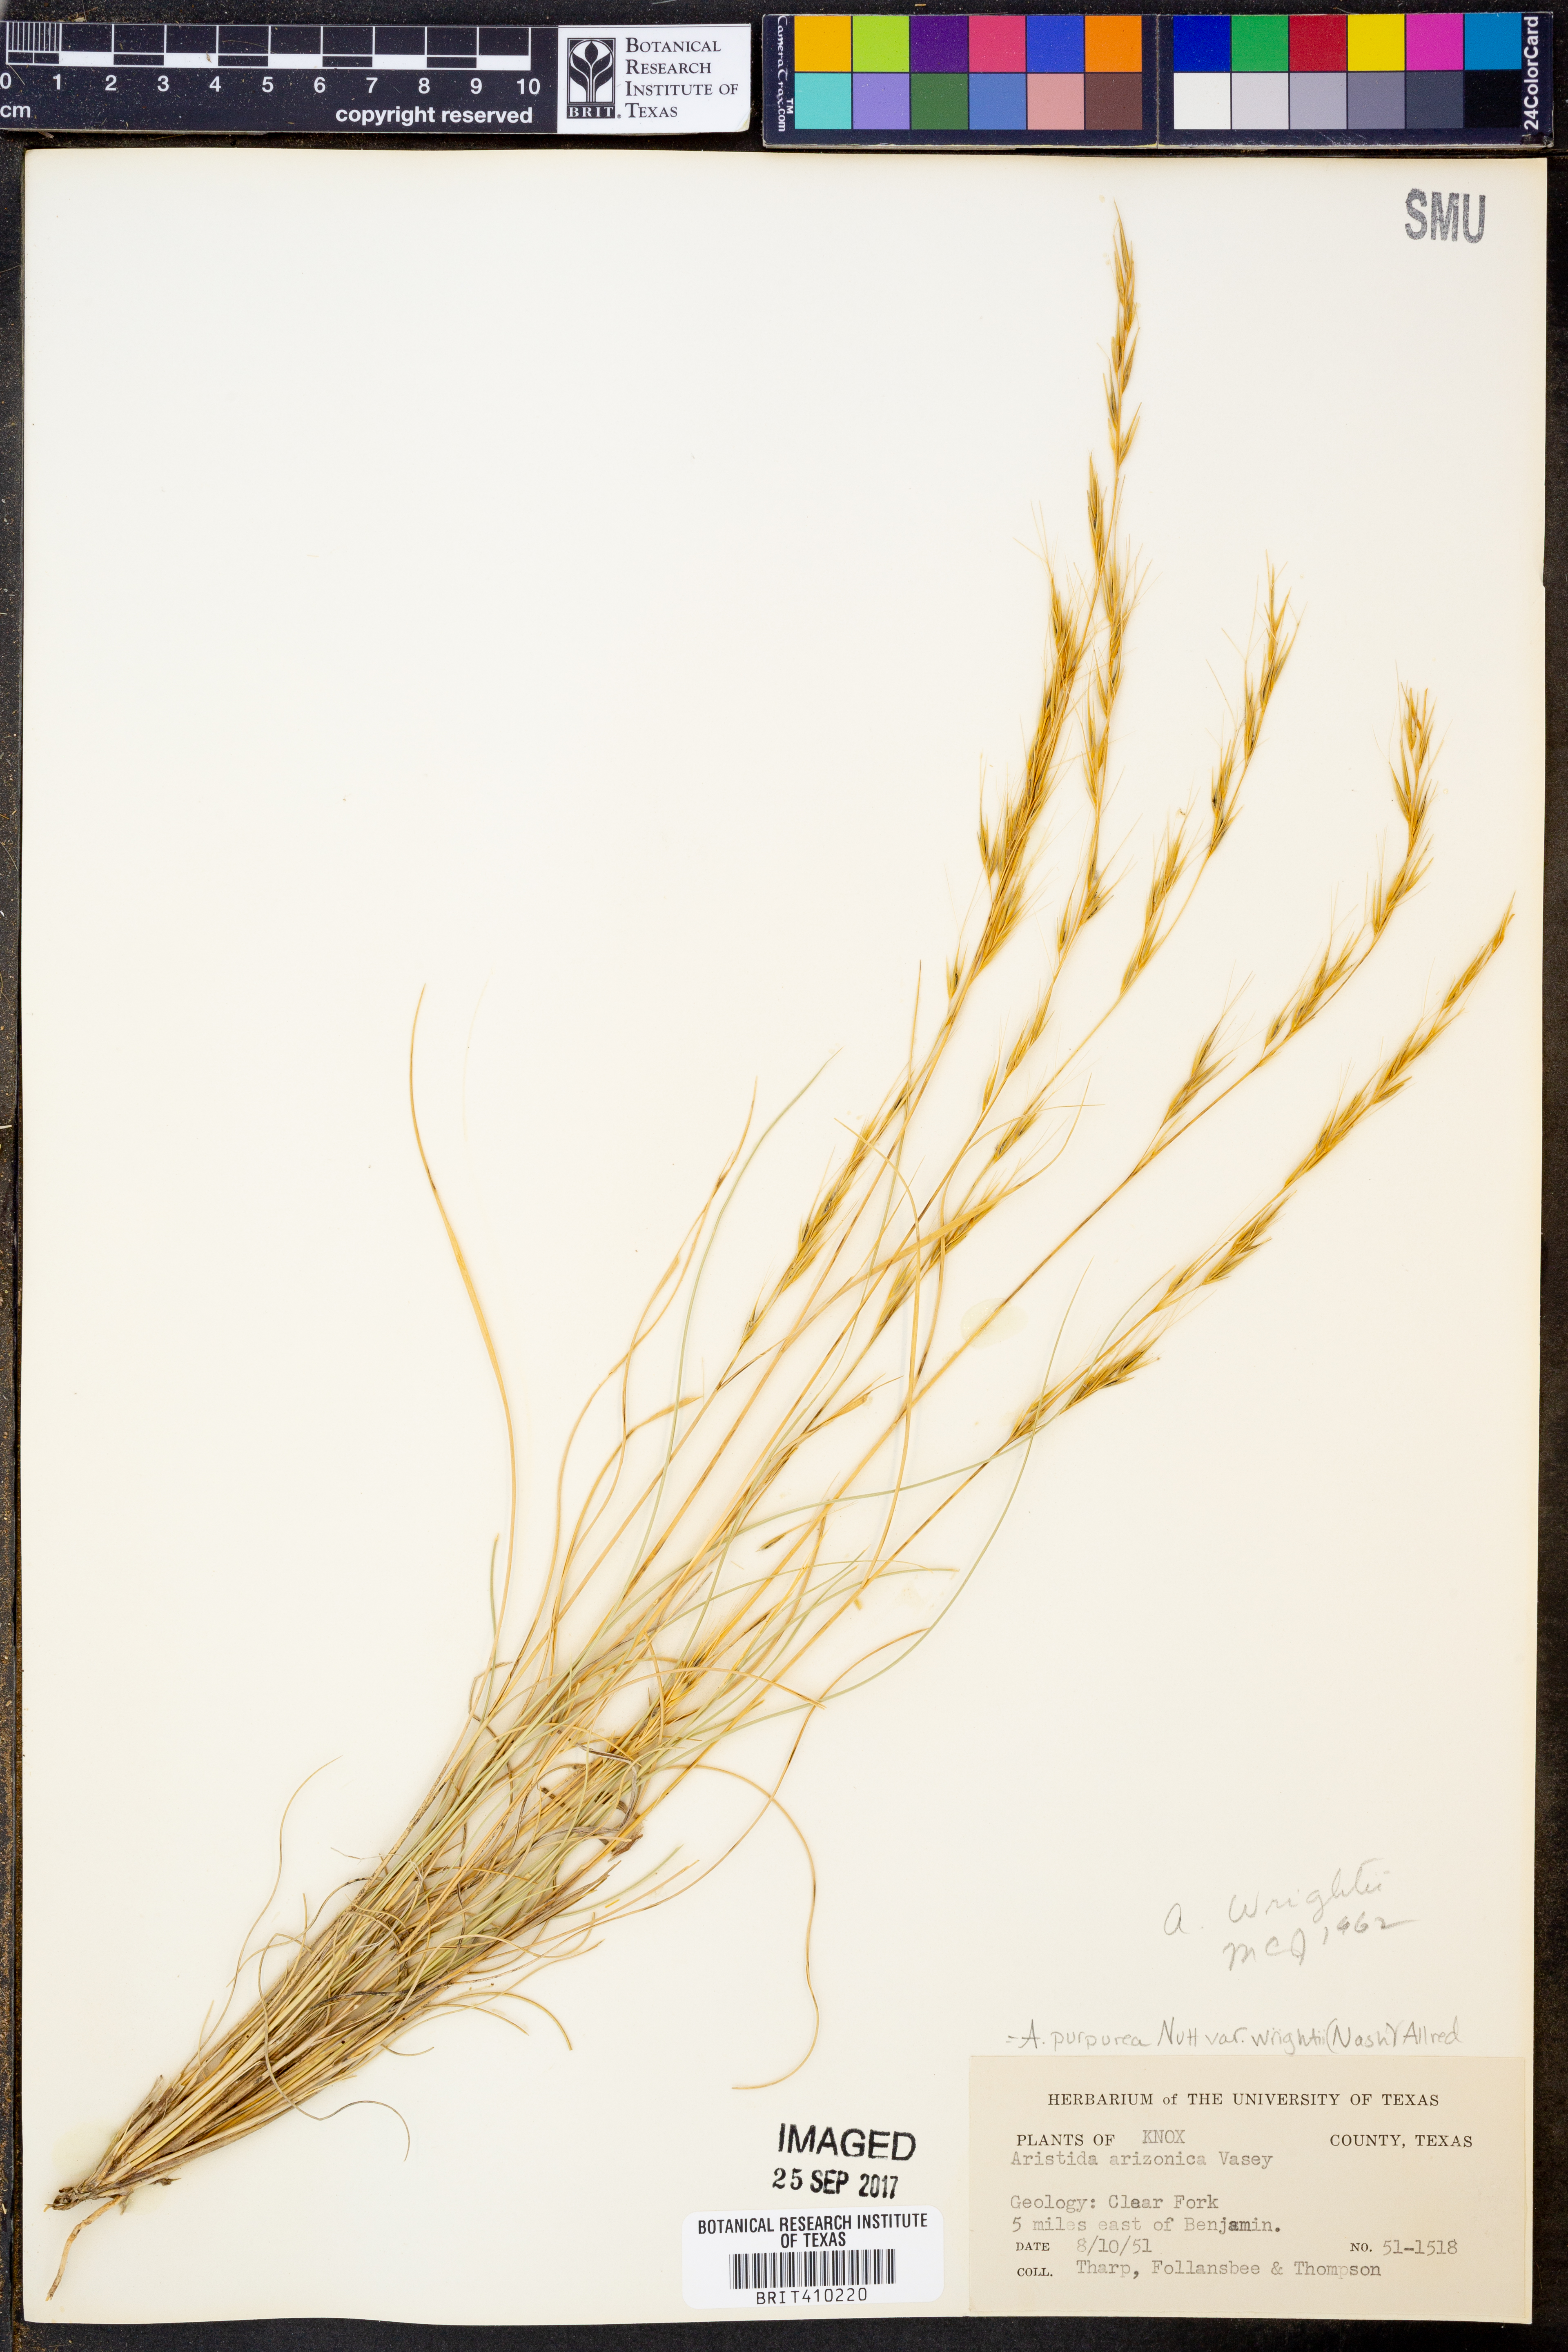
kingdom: Plantae
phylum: Tracheophyta
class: Liliopsida
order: Poales
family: Poaceae
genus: Aristida
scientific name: Aristida wrightii
